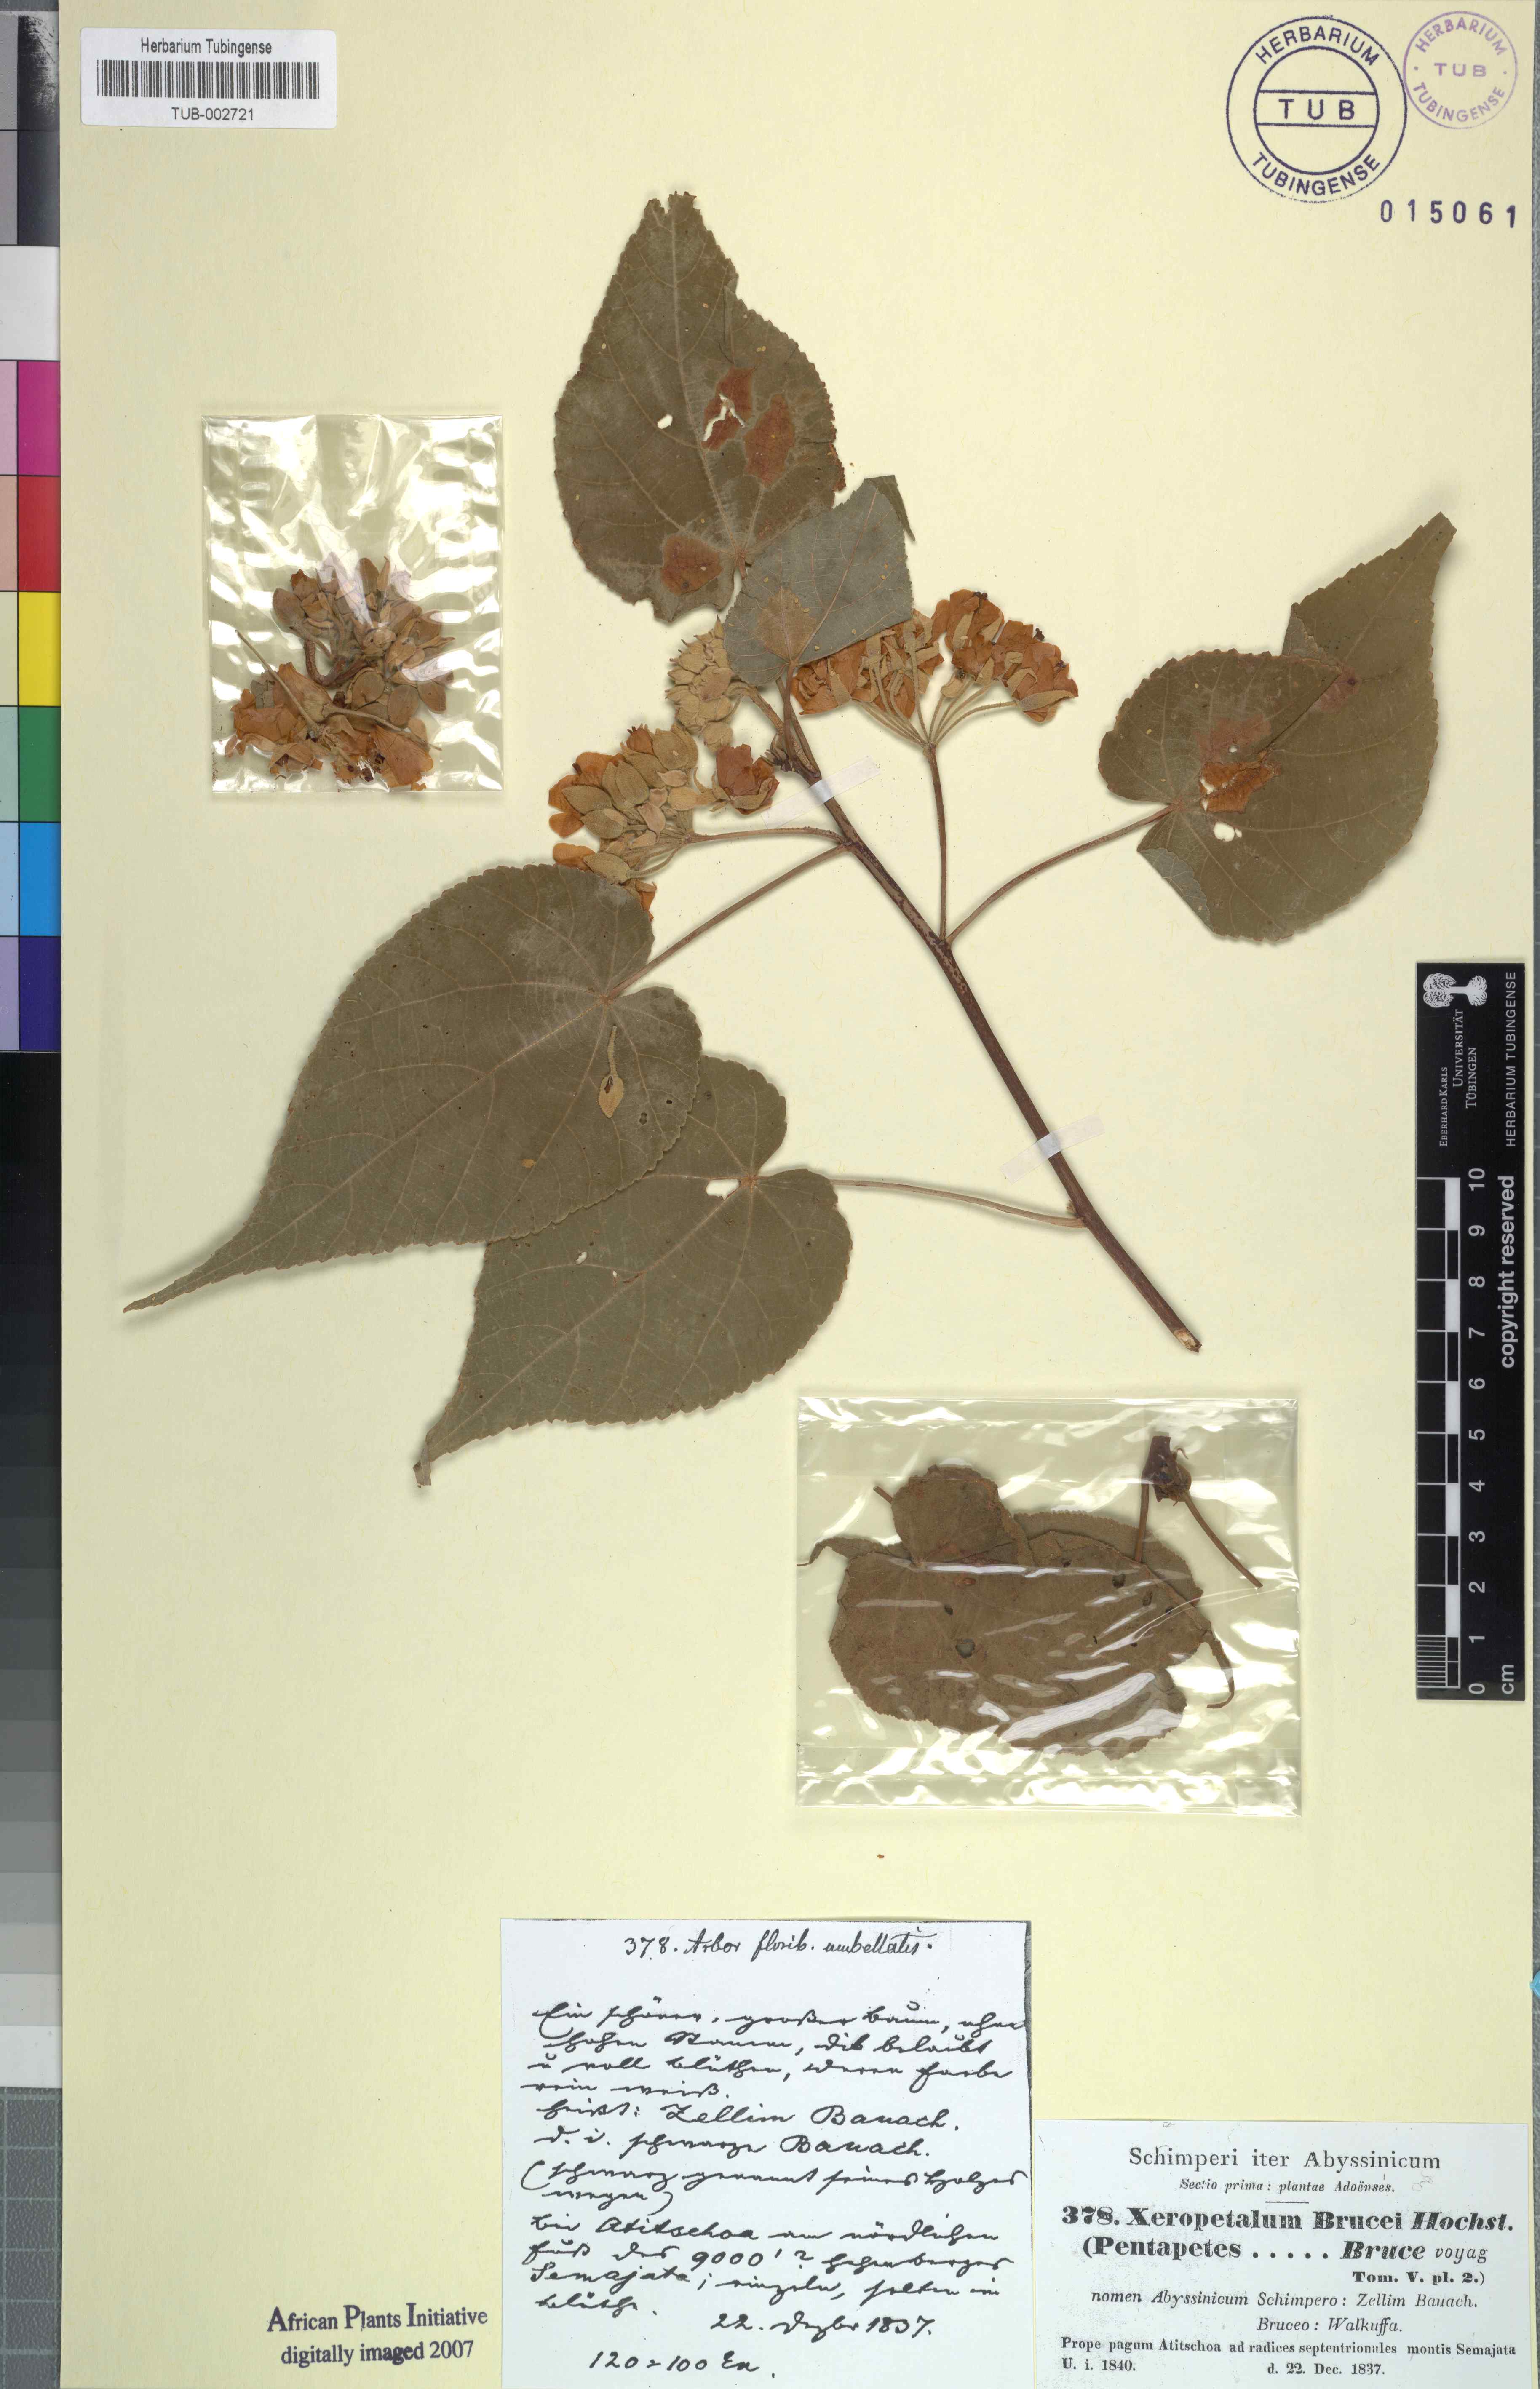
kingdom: Plantae
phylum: Tracheophyta
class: Magnoliopsida
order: Malvales
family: Malvaceae
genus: Dombeya
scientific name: Dombeya torrida
